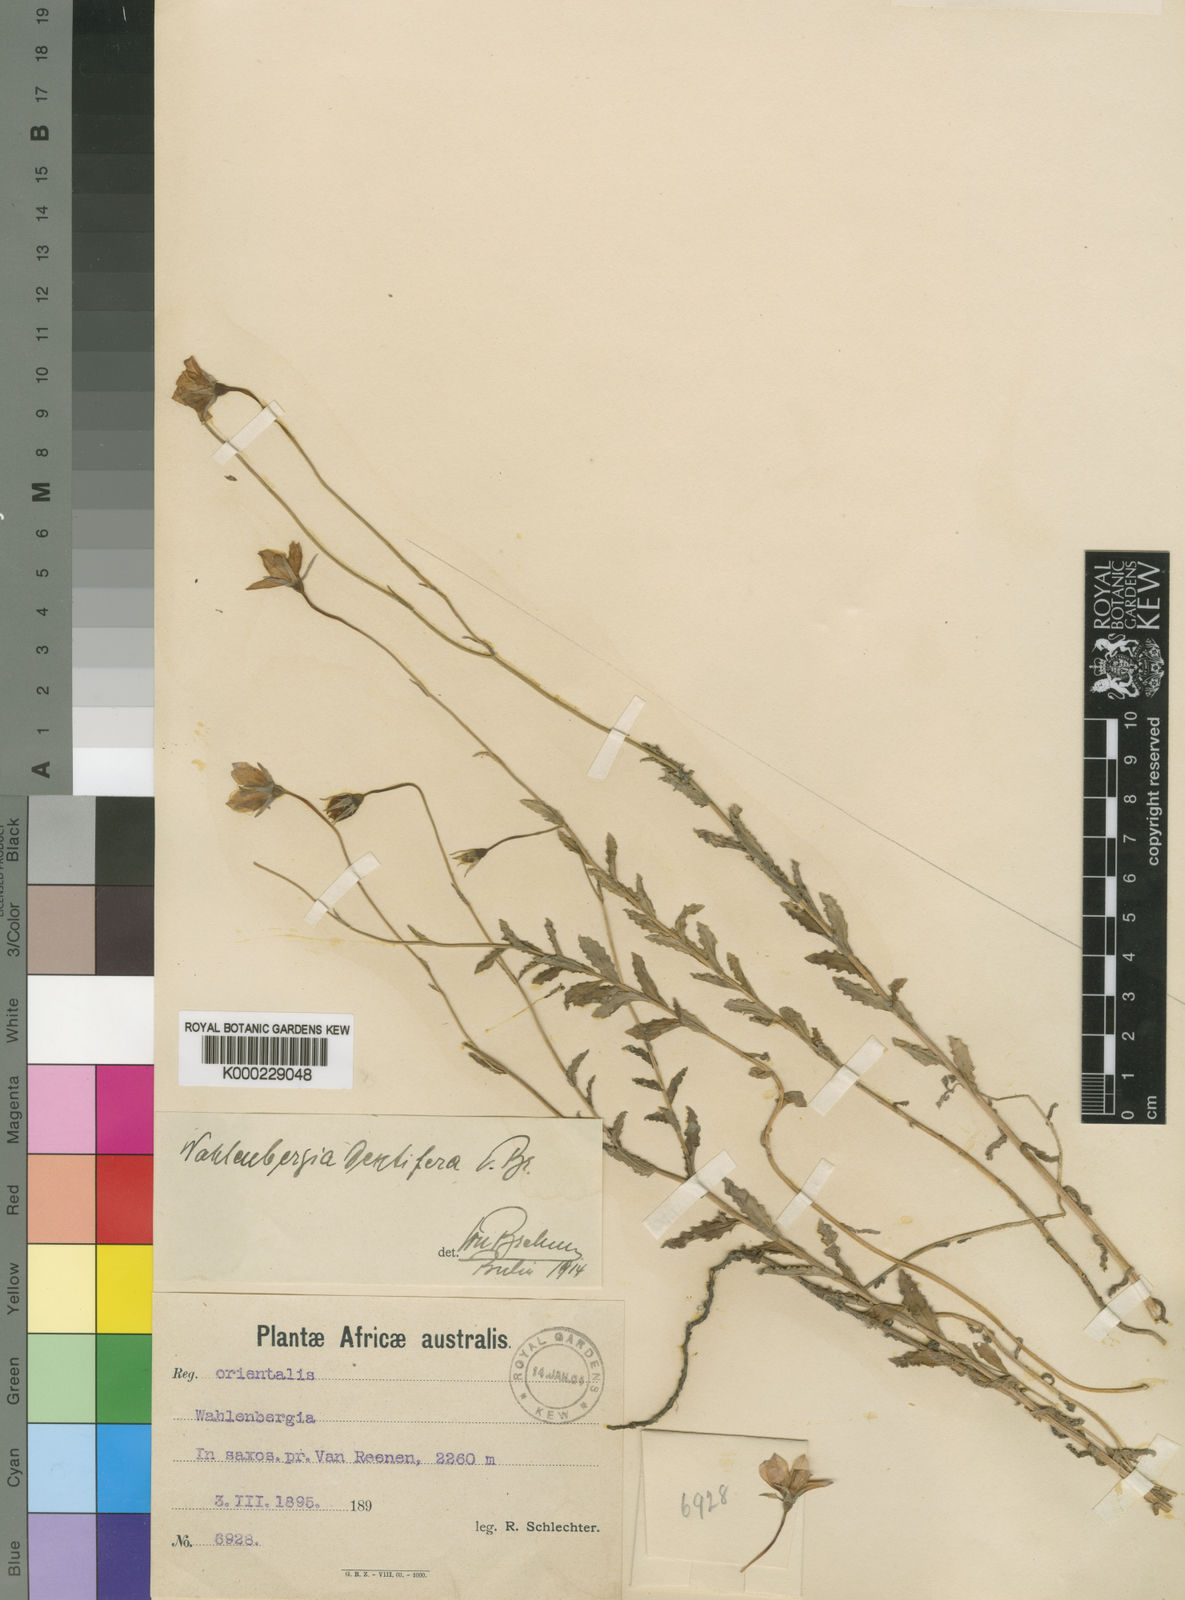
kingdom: Plantae
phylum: Tracheophyta
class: Magnoliopsida
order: Asterales
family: Campanulaceae
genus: Wahlenbergia
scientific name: Wahlenbergia cuspidata
